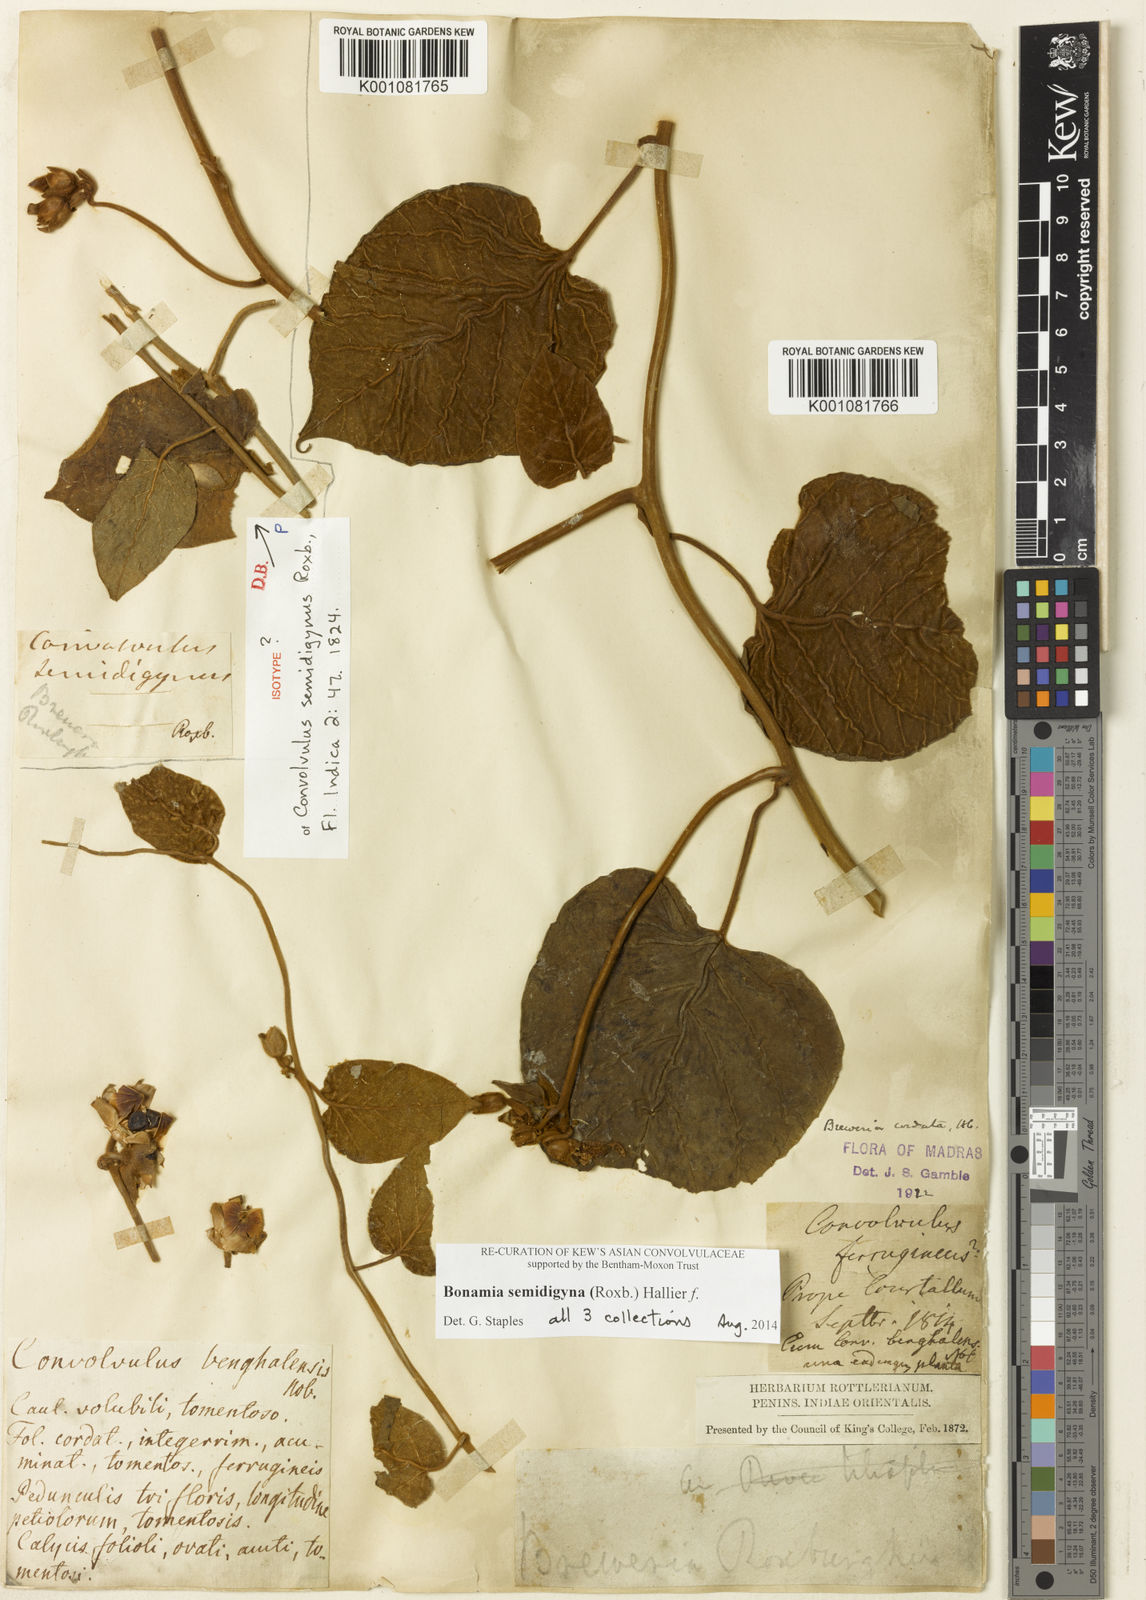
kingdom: Plantae
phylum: Tracheophyta
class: Magnoliopsida
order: Solanales
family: Convolvulaceae
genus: Bonamia
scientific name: Bonamia semidigyna
